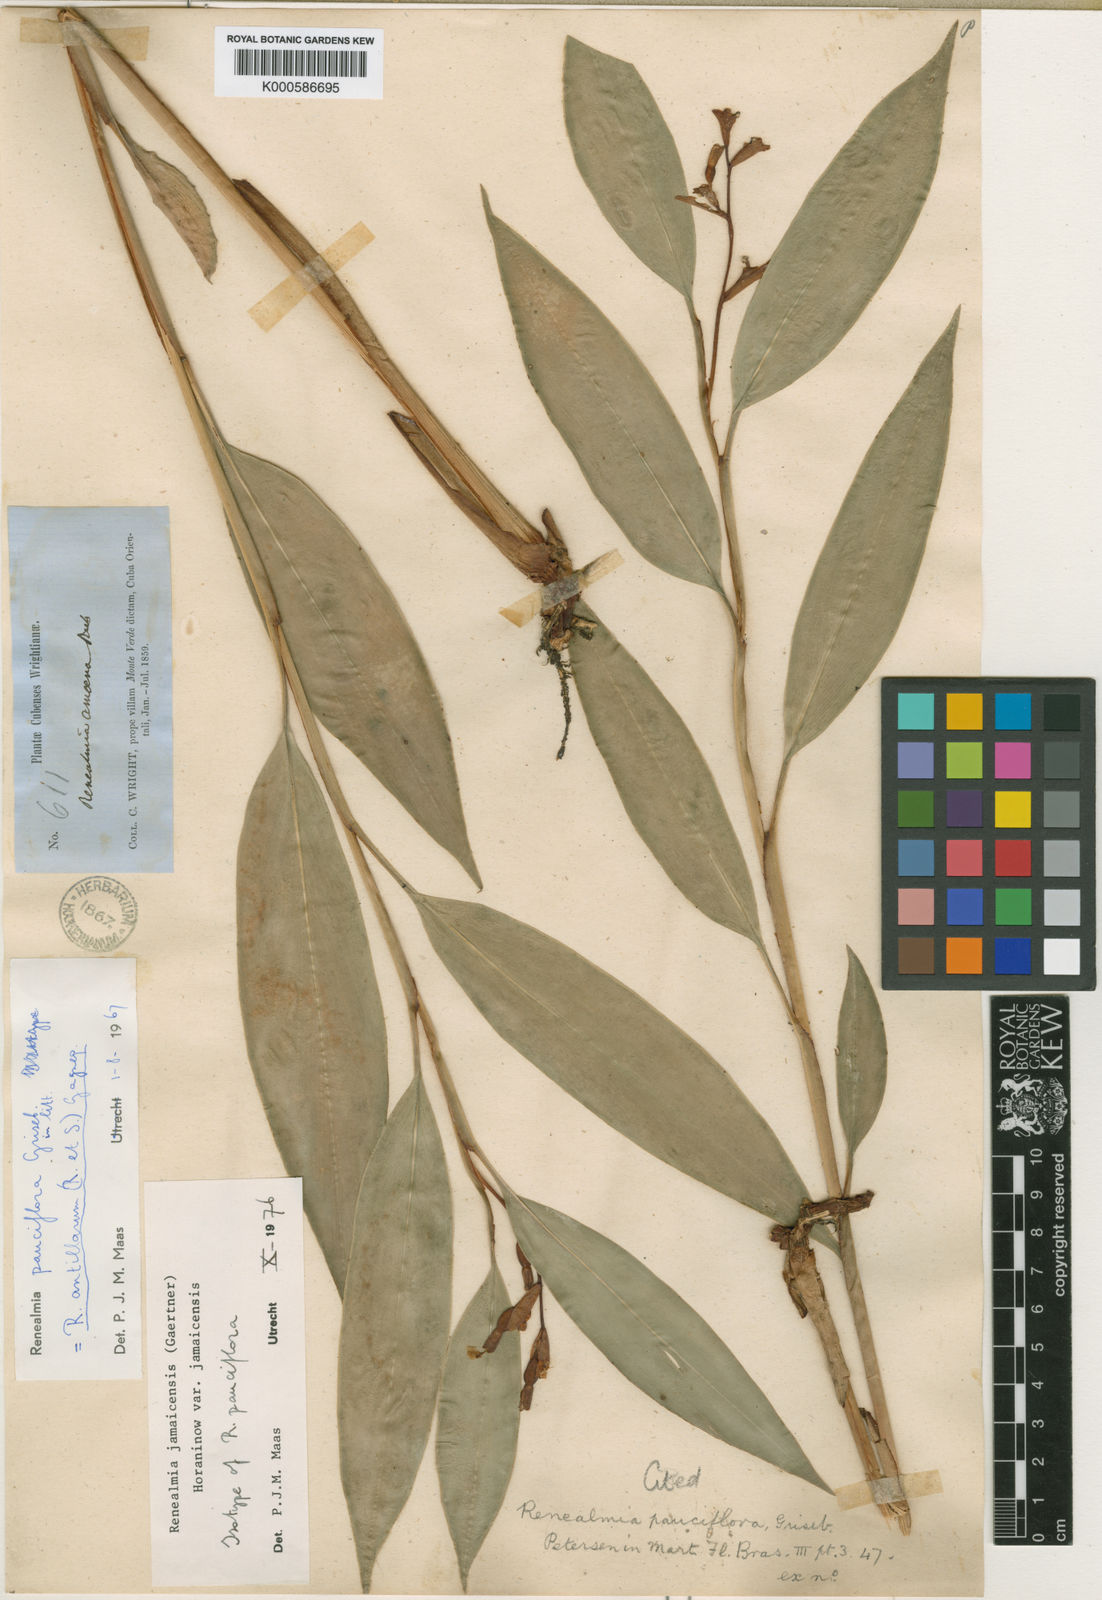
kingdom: Plantae
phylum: Tracheophyta
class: Liliopsida
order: Zingiberales
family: Zingiberaceae
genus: Renealmia
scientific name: Renealmia jamaicensis
